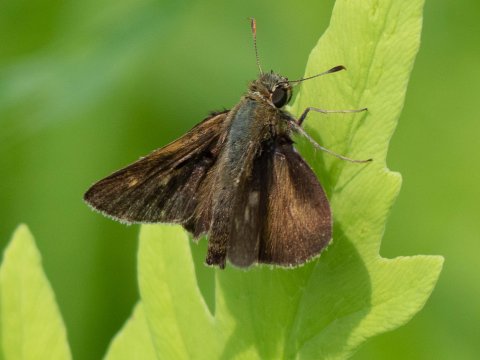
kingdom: Animalia
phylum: Arthropoda
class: Insecta
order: Lepidoptera
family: Hesperiidae
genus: Polites
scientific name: Polites egeremet
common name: Northern Broken-Dash
